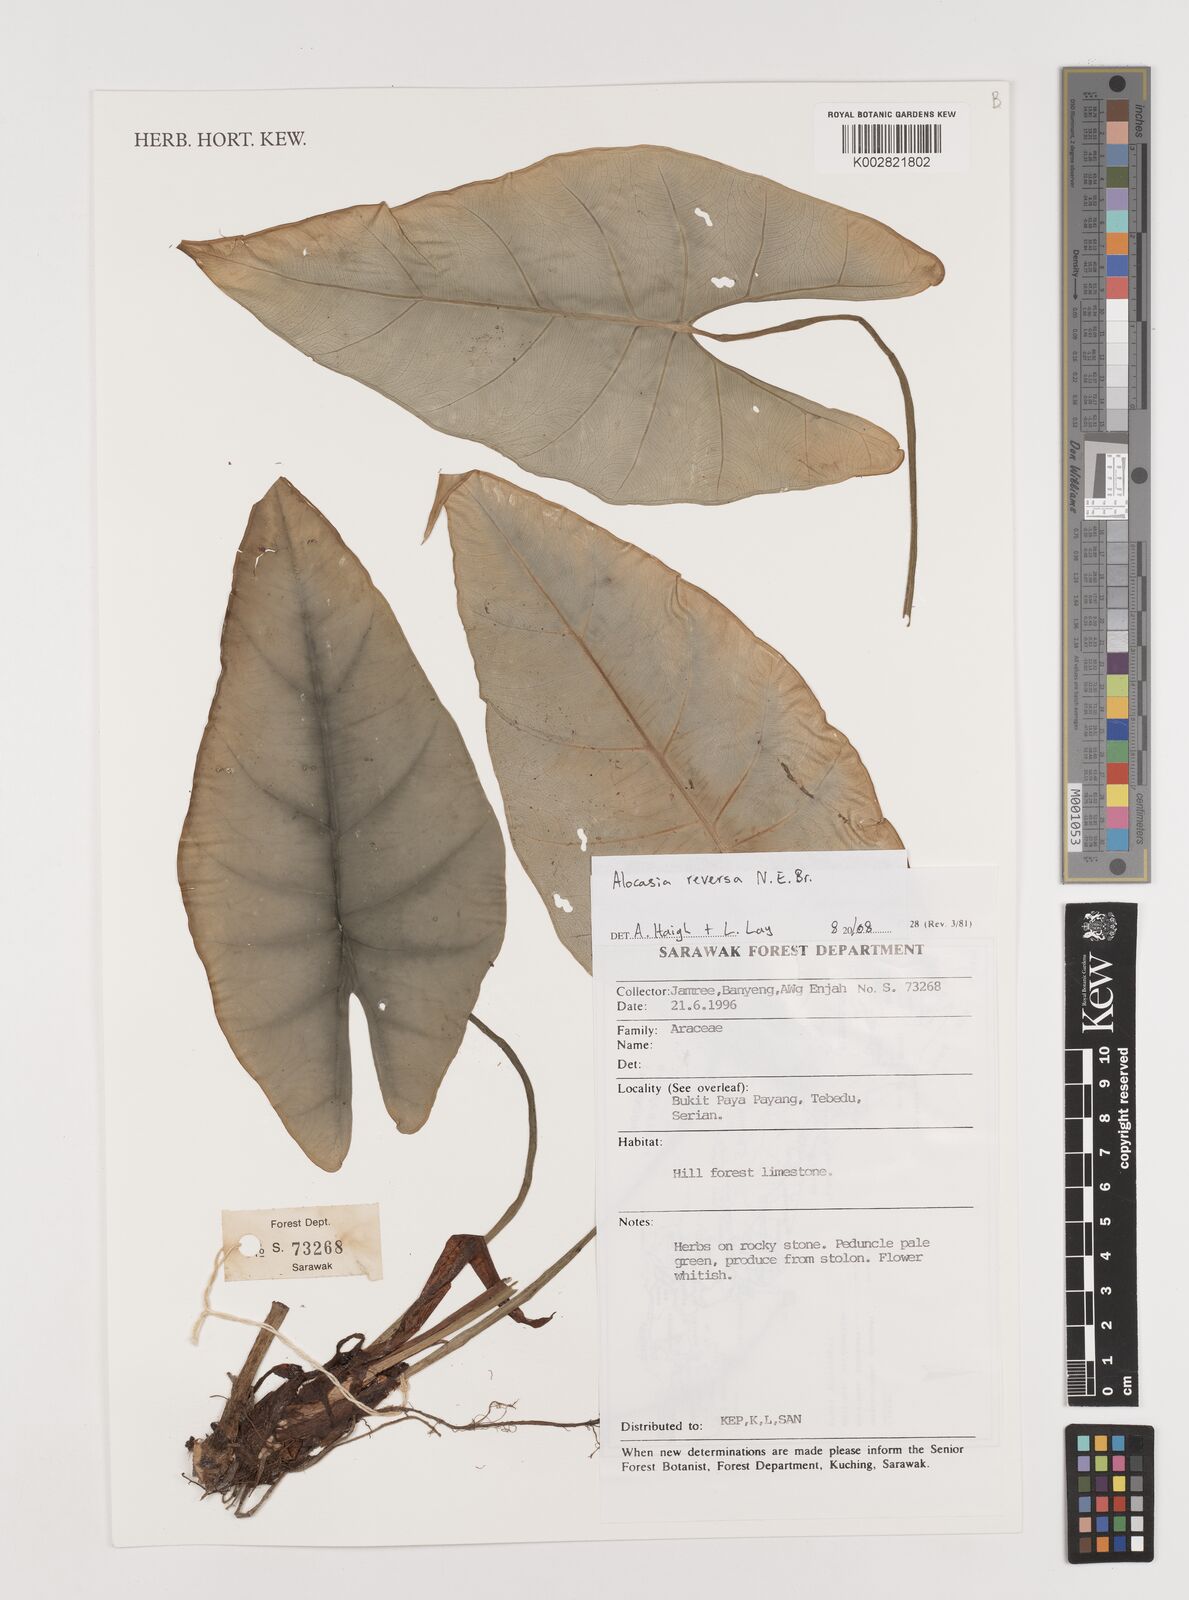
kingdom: Plantae
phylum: Tracheophyta
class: Liliopsida
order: Alismatales
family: Araceae
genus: Alocasia
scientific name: Alocasia reversa
